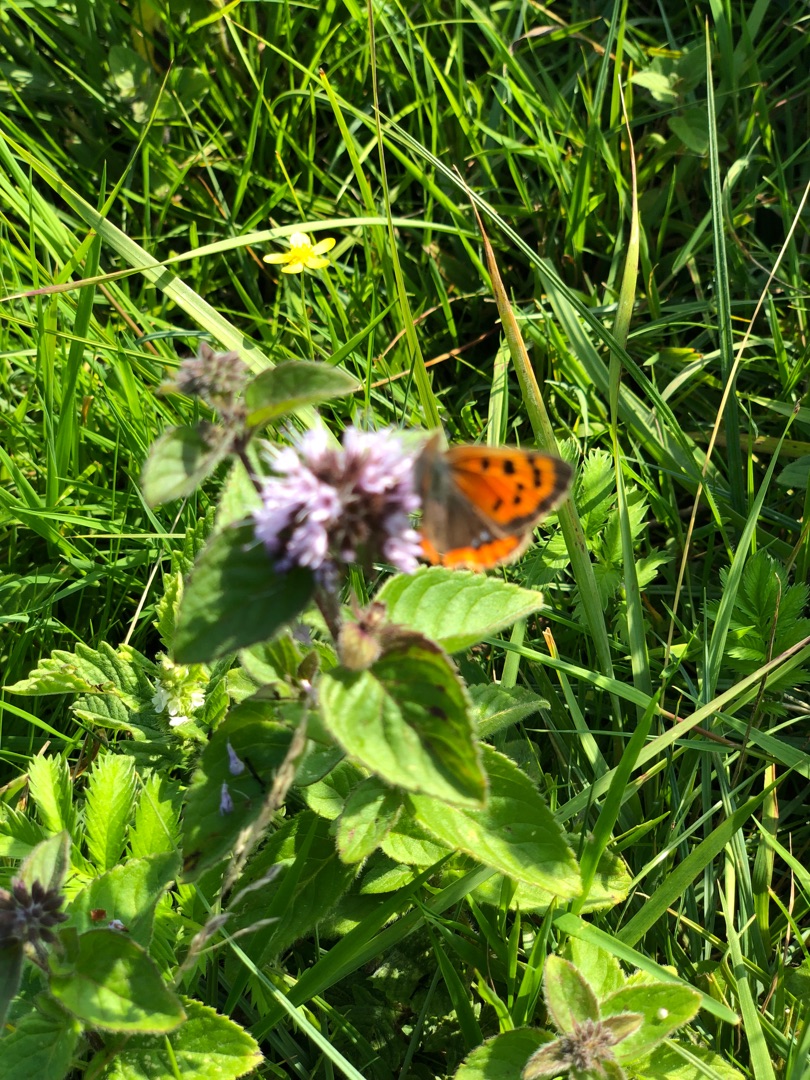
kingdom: Animalia
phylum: Arthropoda
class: Insecta
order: Lepidoptera
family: Lycaenidae
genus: Lycaena
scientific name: Lycaena phlaeas
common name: Lille ildfugl
